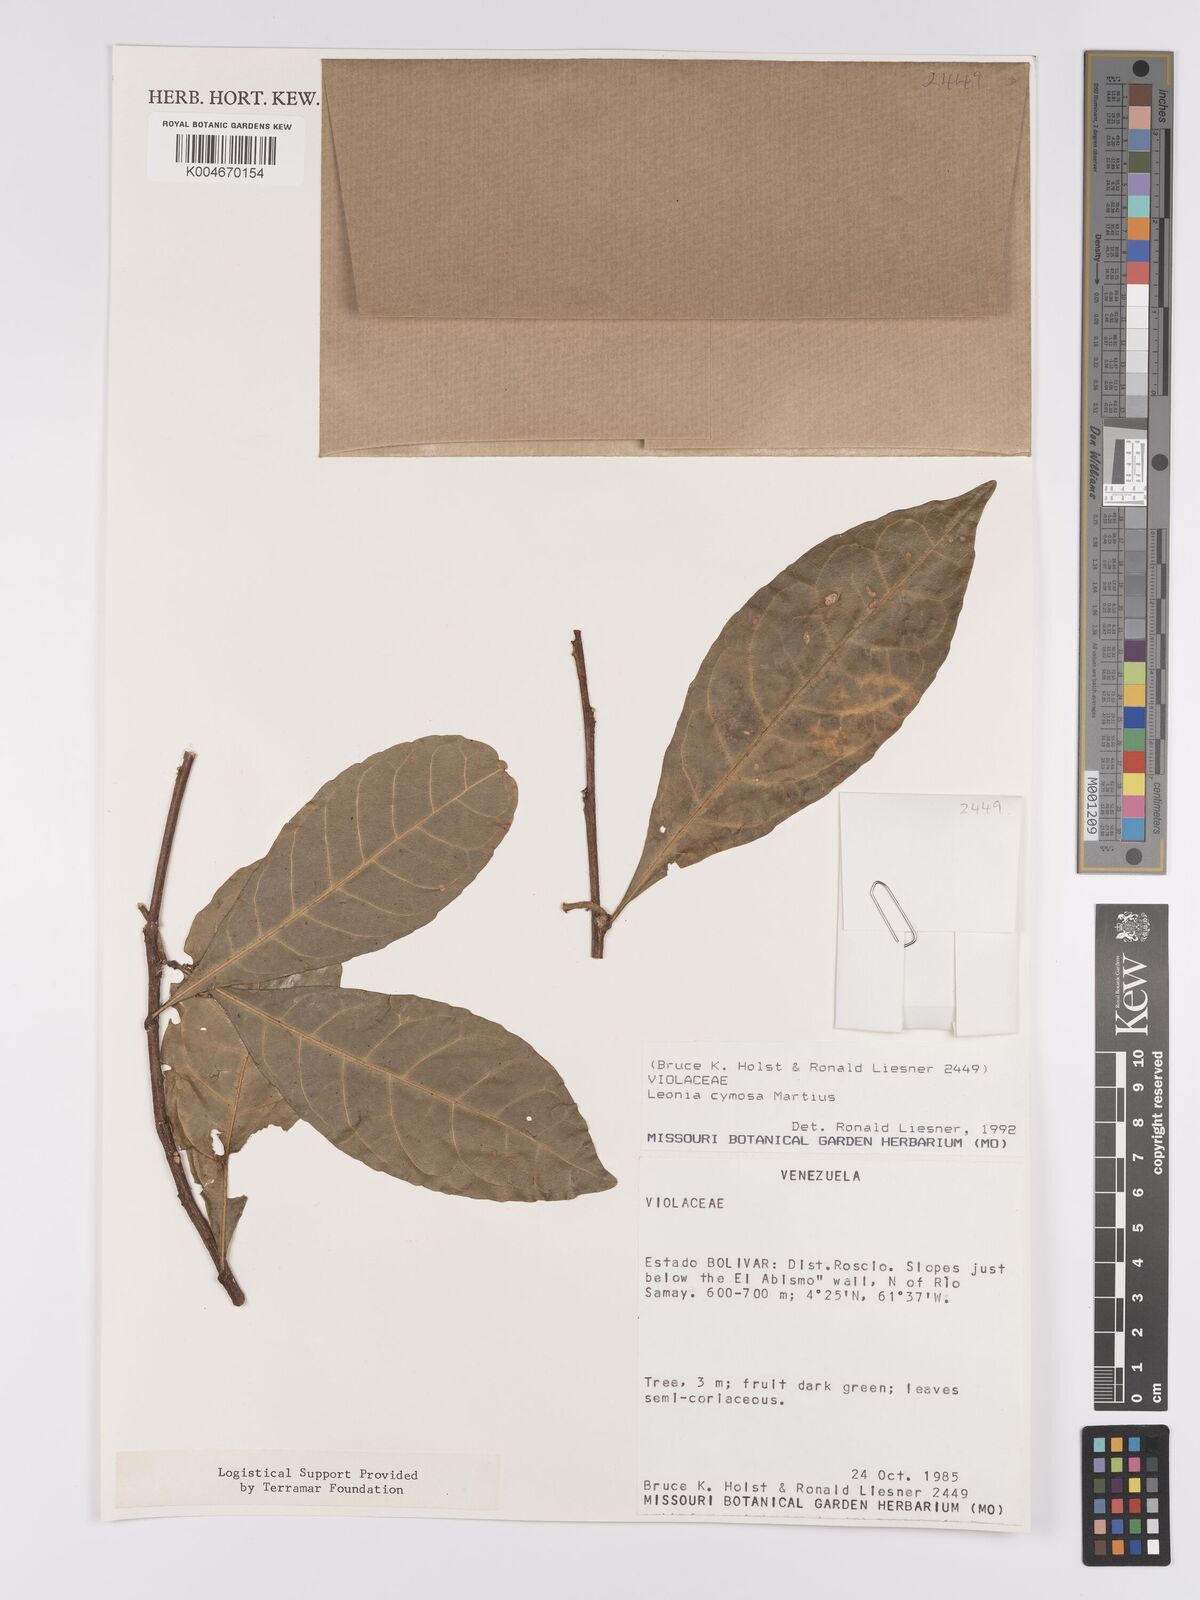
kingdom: Plantae
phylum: Tracheophyta
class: Magnoliopsida
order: Malpighiales
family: Violaceae
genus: Leonia
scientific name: Leonia cymosa
